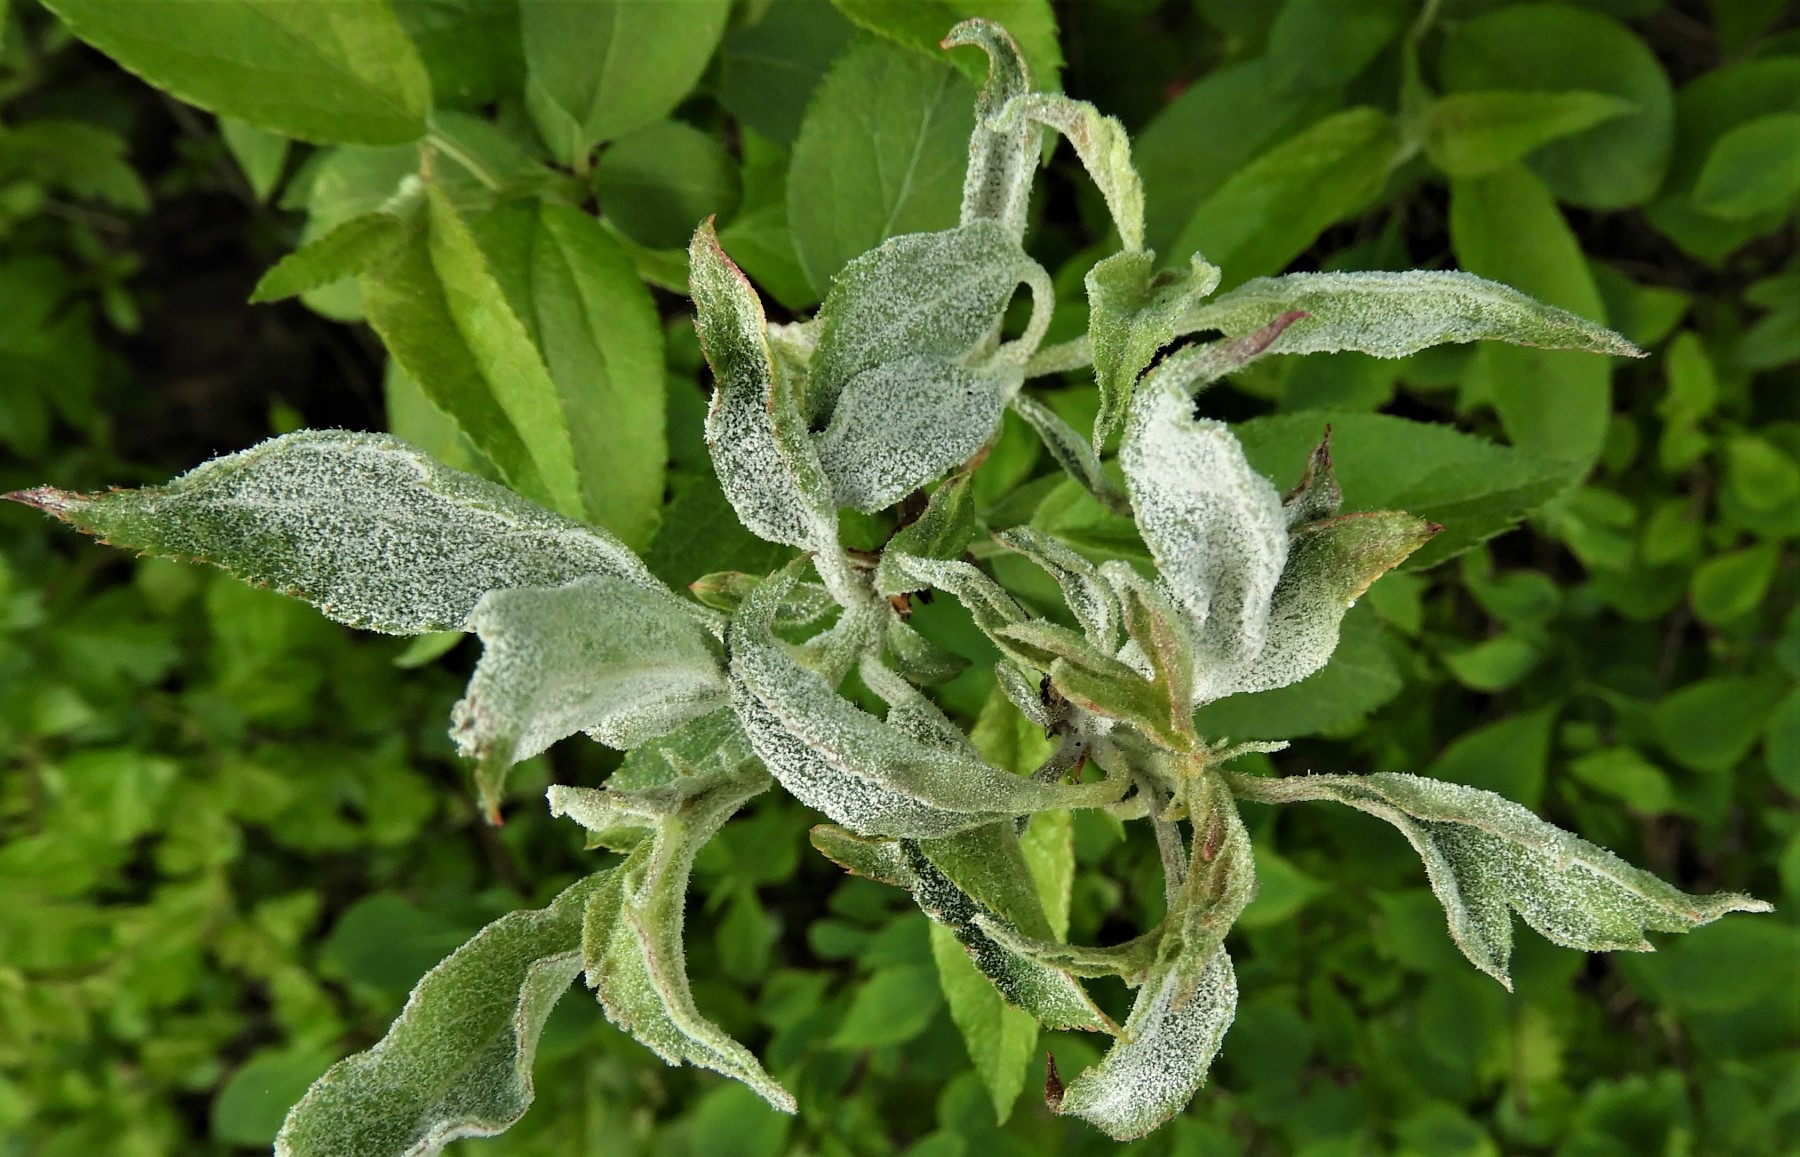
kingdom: Fungi
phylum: Ascomycota
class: Leotiomycetes
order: Helotiales
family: Erysiphaceae
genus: Podosphaera
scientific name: Podosphaera leucotricha
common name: æble-meldug
